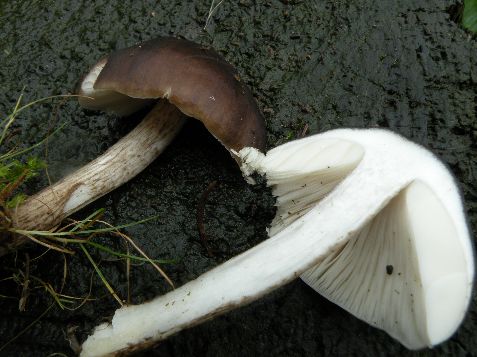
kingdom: Fungi
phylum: Basidiomycota
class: Agaricomycetes
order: Agaricales
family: Pluteaceae
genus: Pluteus
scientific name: Pluteus cervinus
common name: sodfarvet skærmhat
